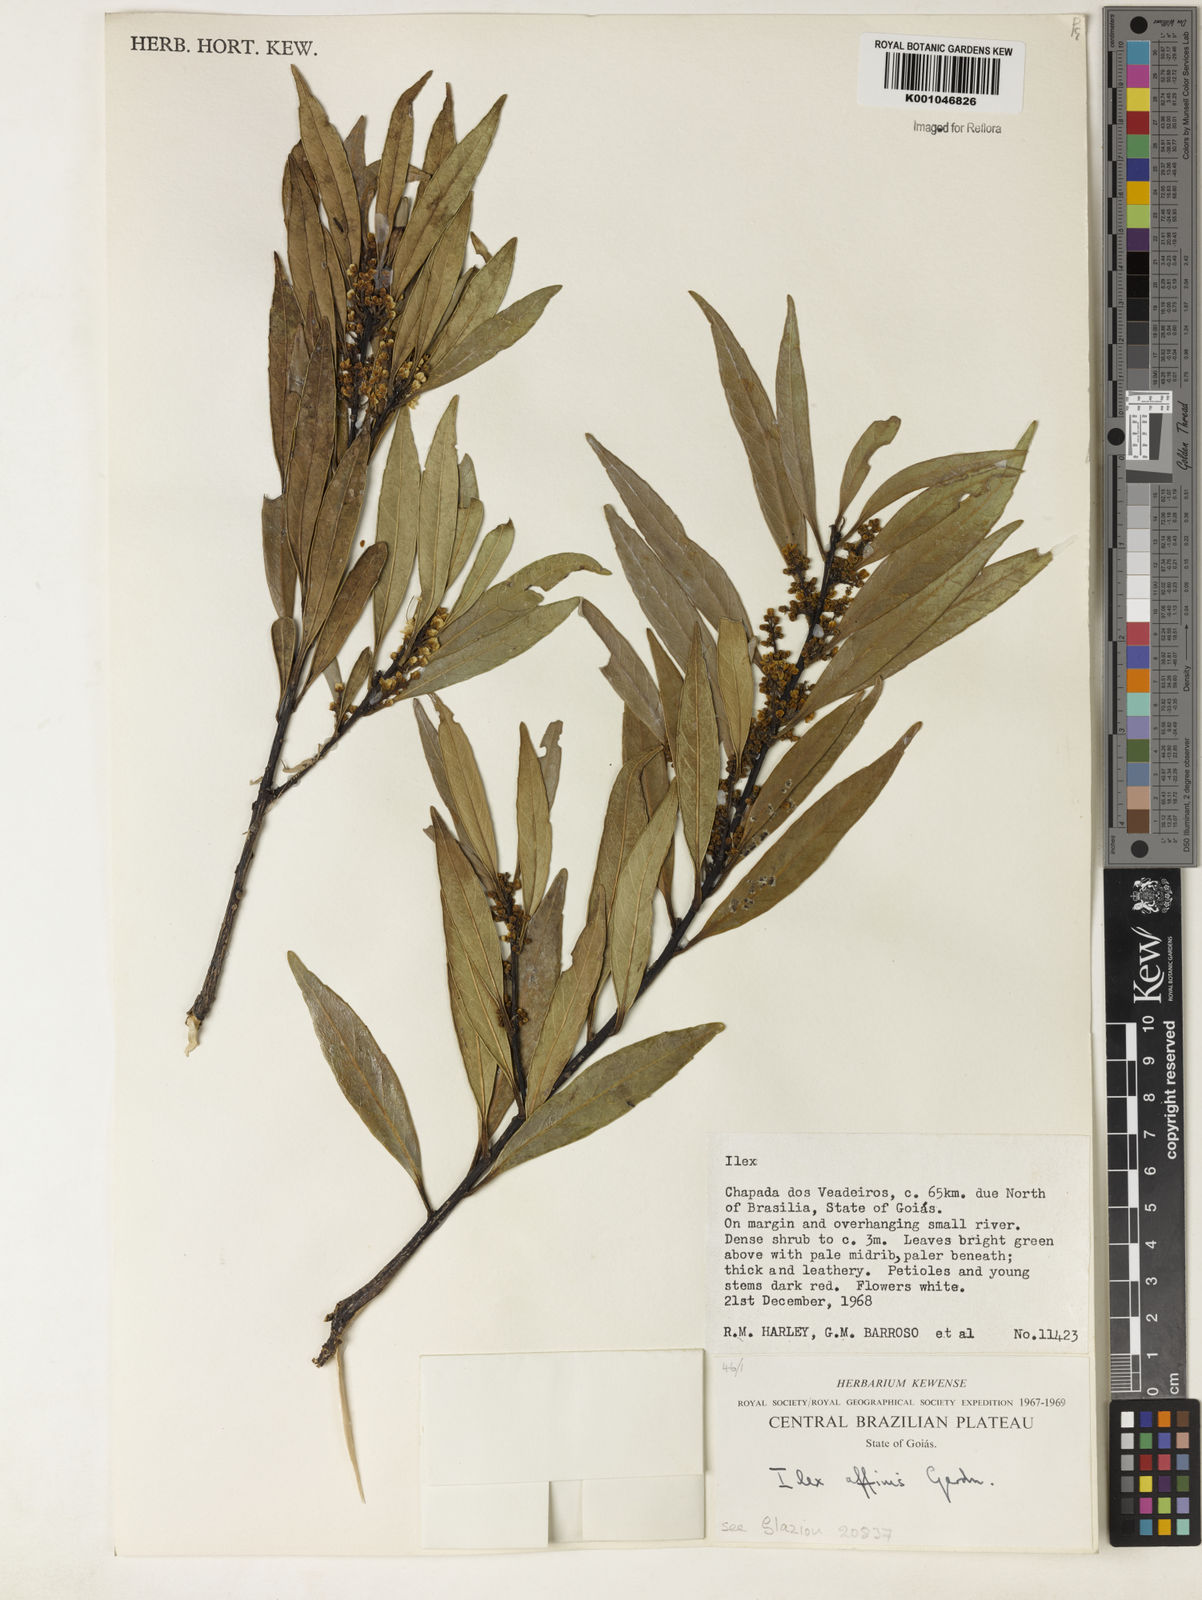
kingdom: Plantae
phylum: Tracheophyta
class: Magnoliopsida
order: Aquifoliales
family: Aquifoliaceae
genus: Ilex
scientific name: Ilex affinis
